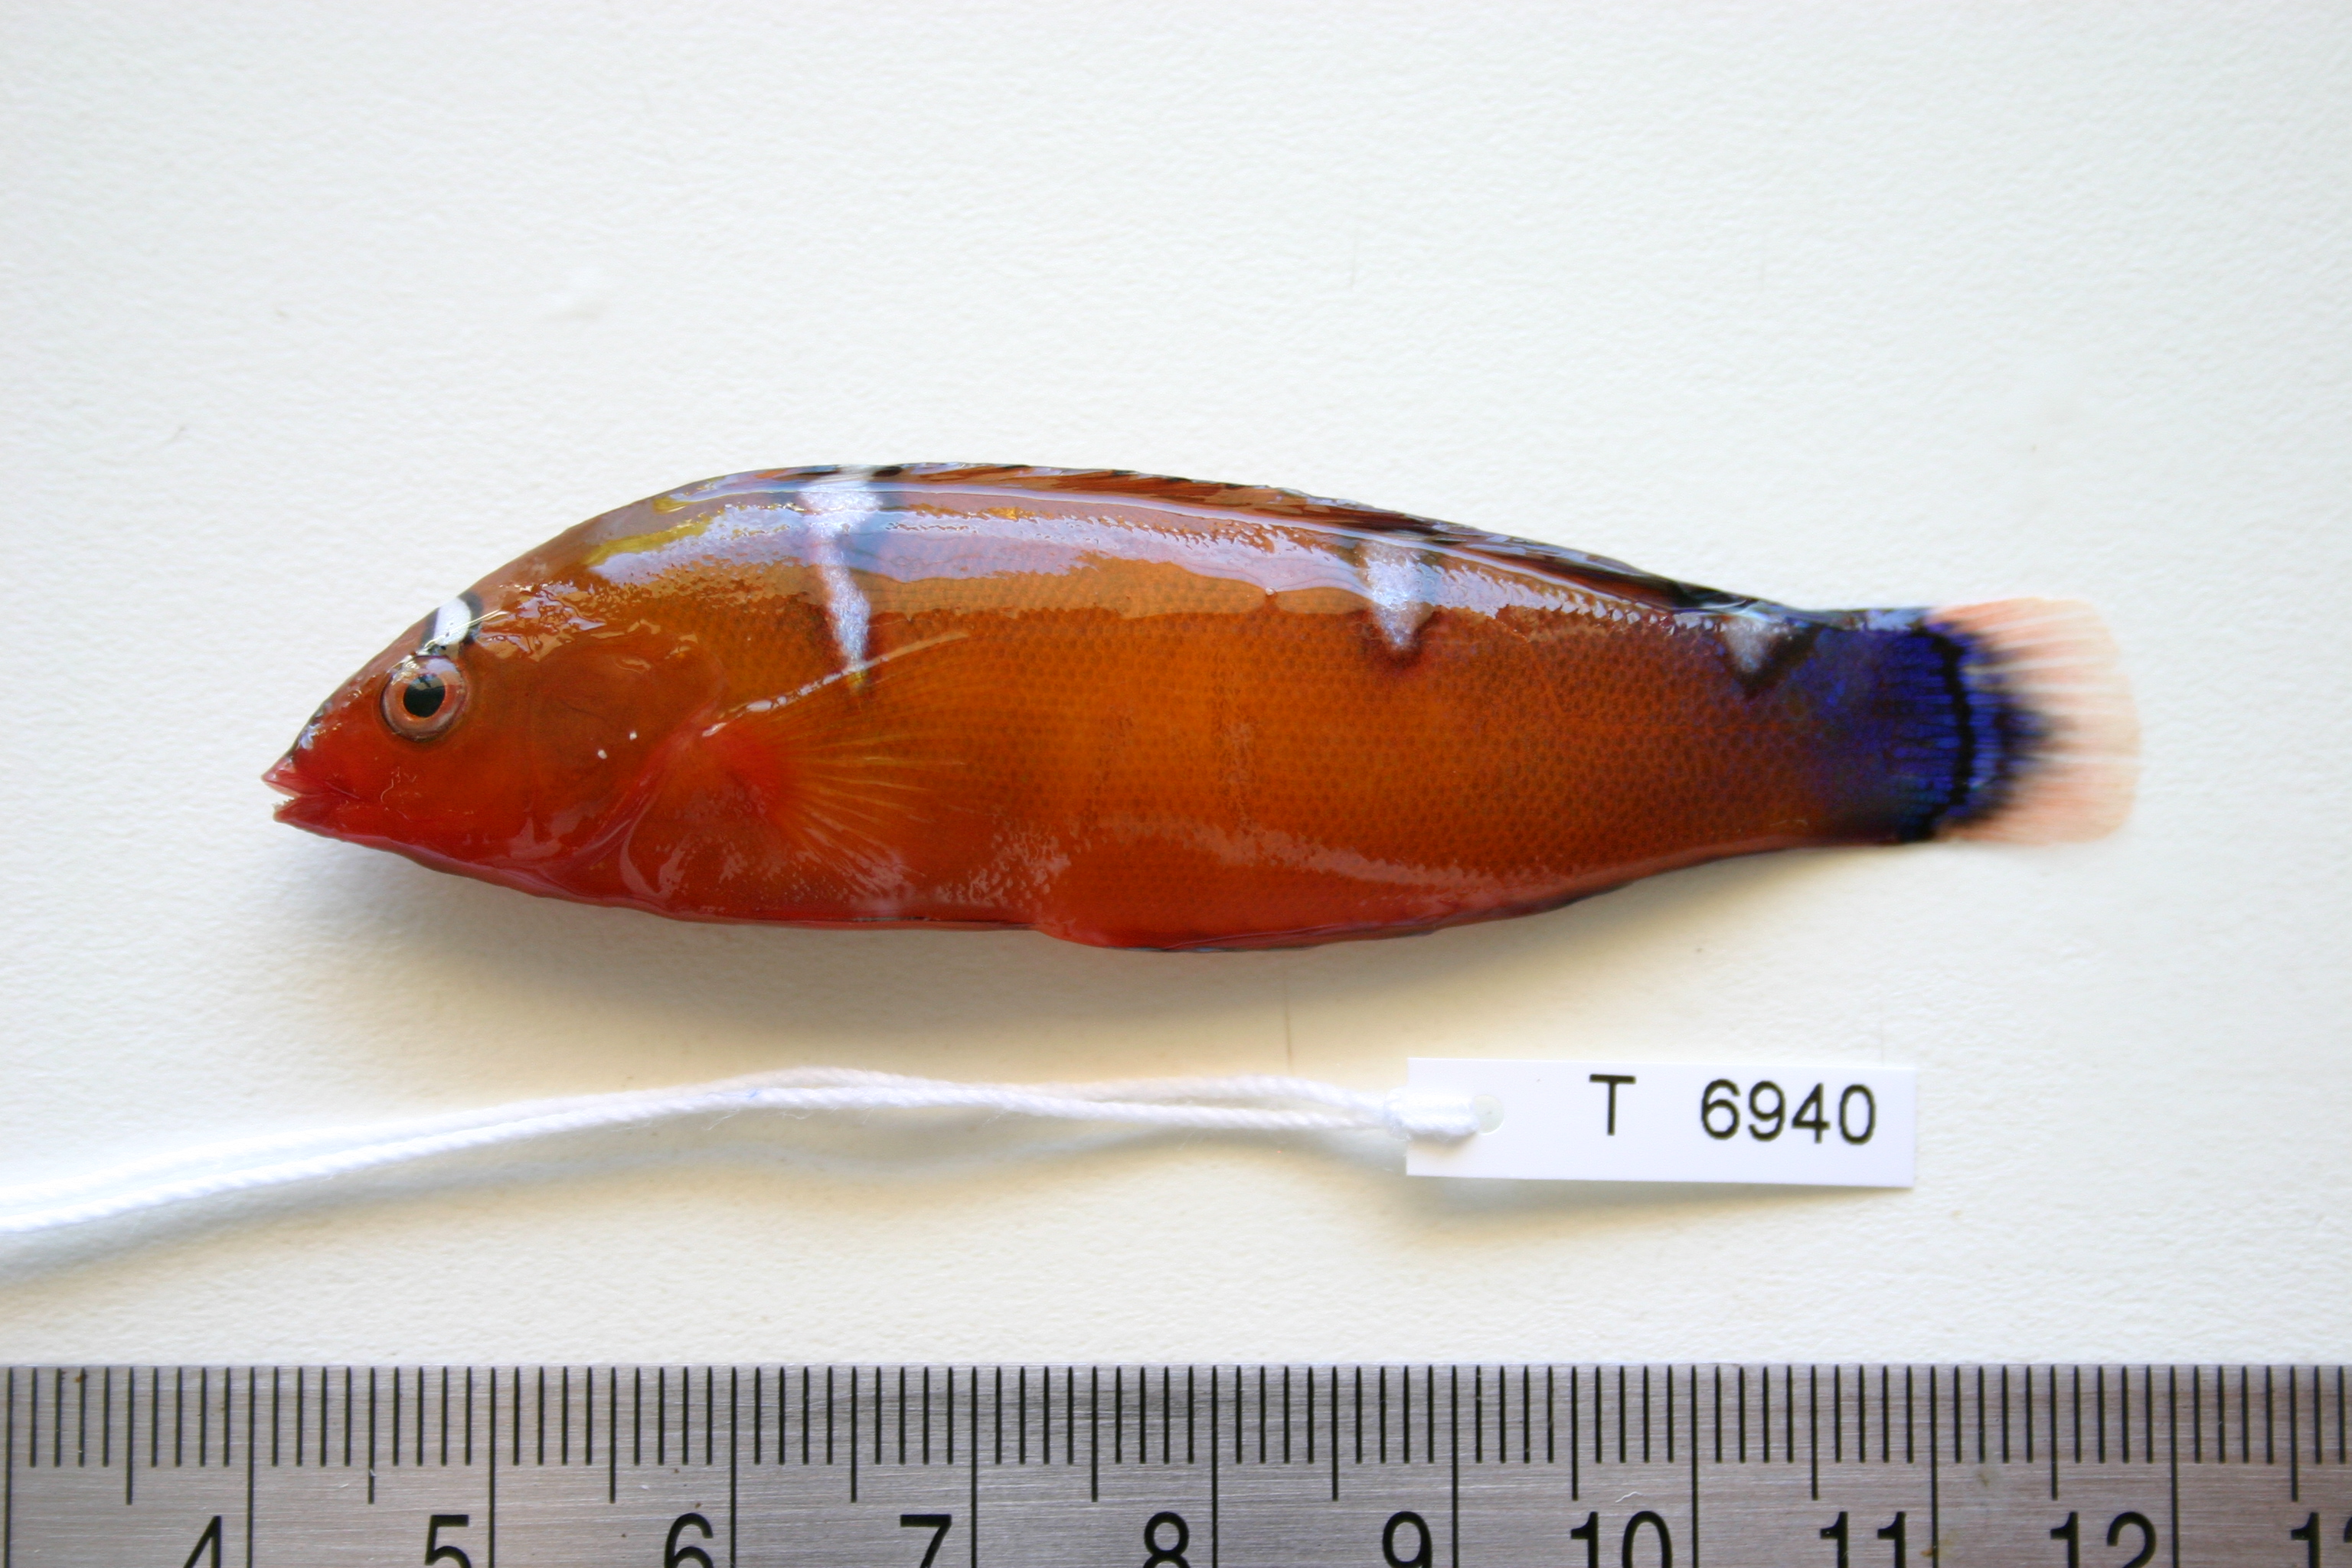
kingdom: Animalia
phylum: Chordata
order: Perciformes
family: Labridae
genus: Coris
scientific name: Coris cuvieri
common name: African coris
